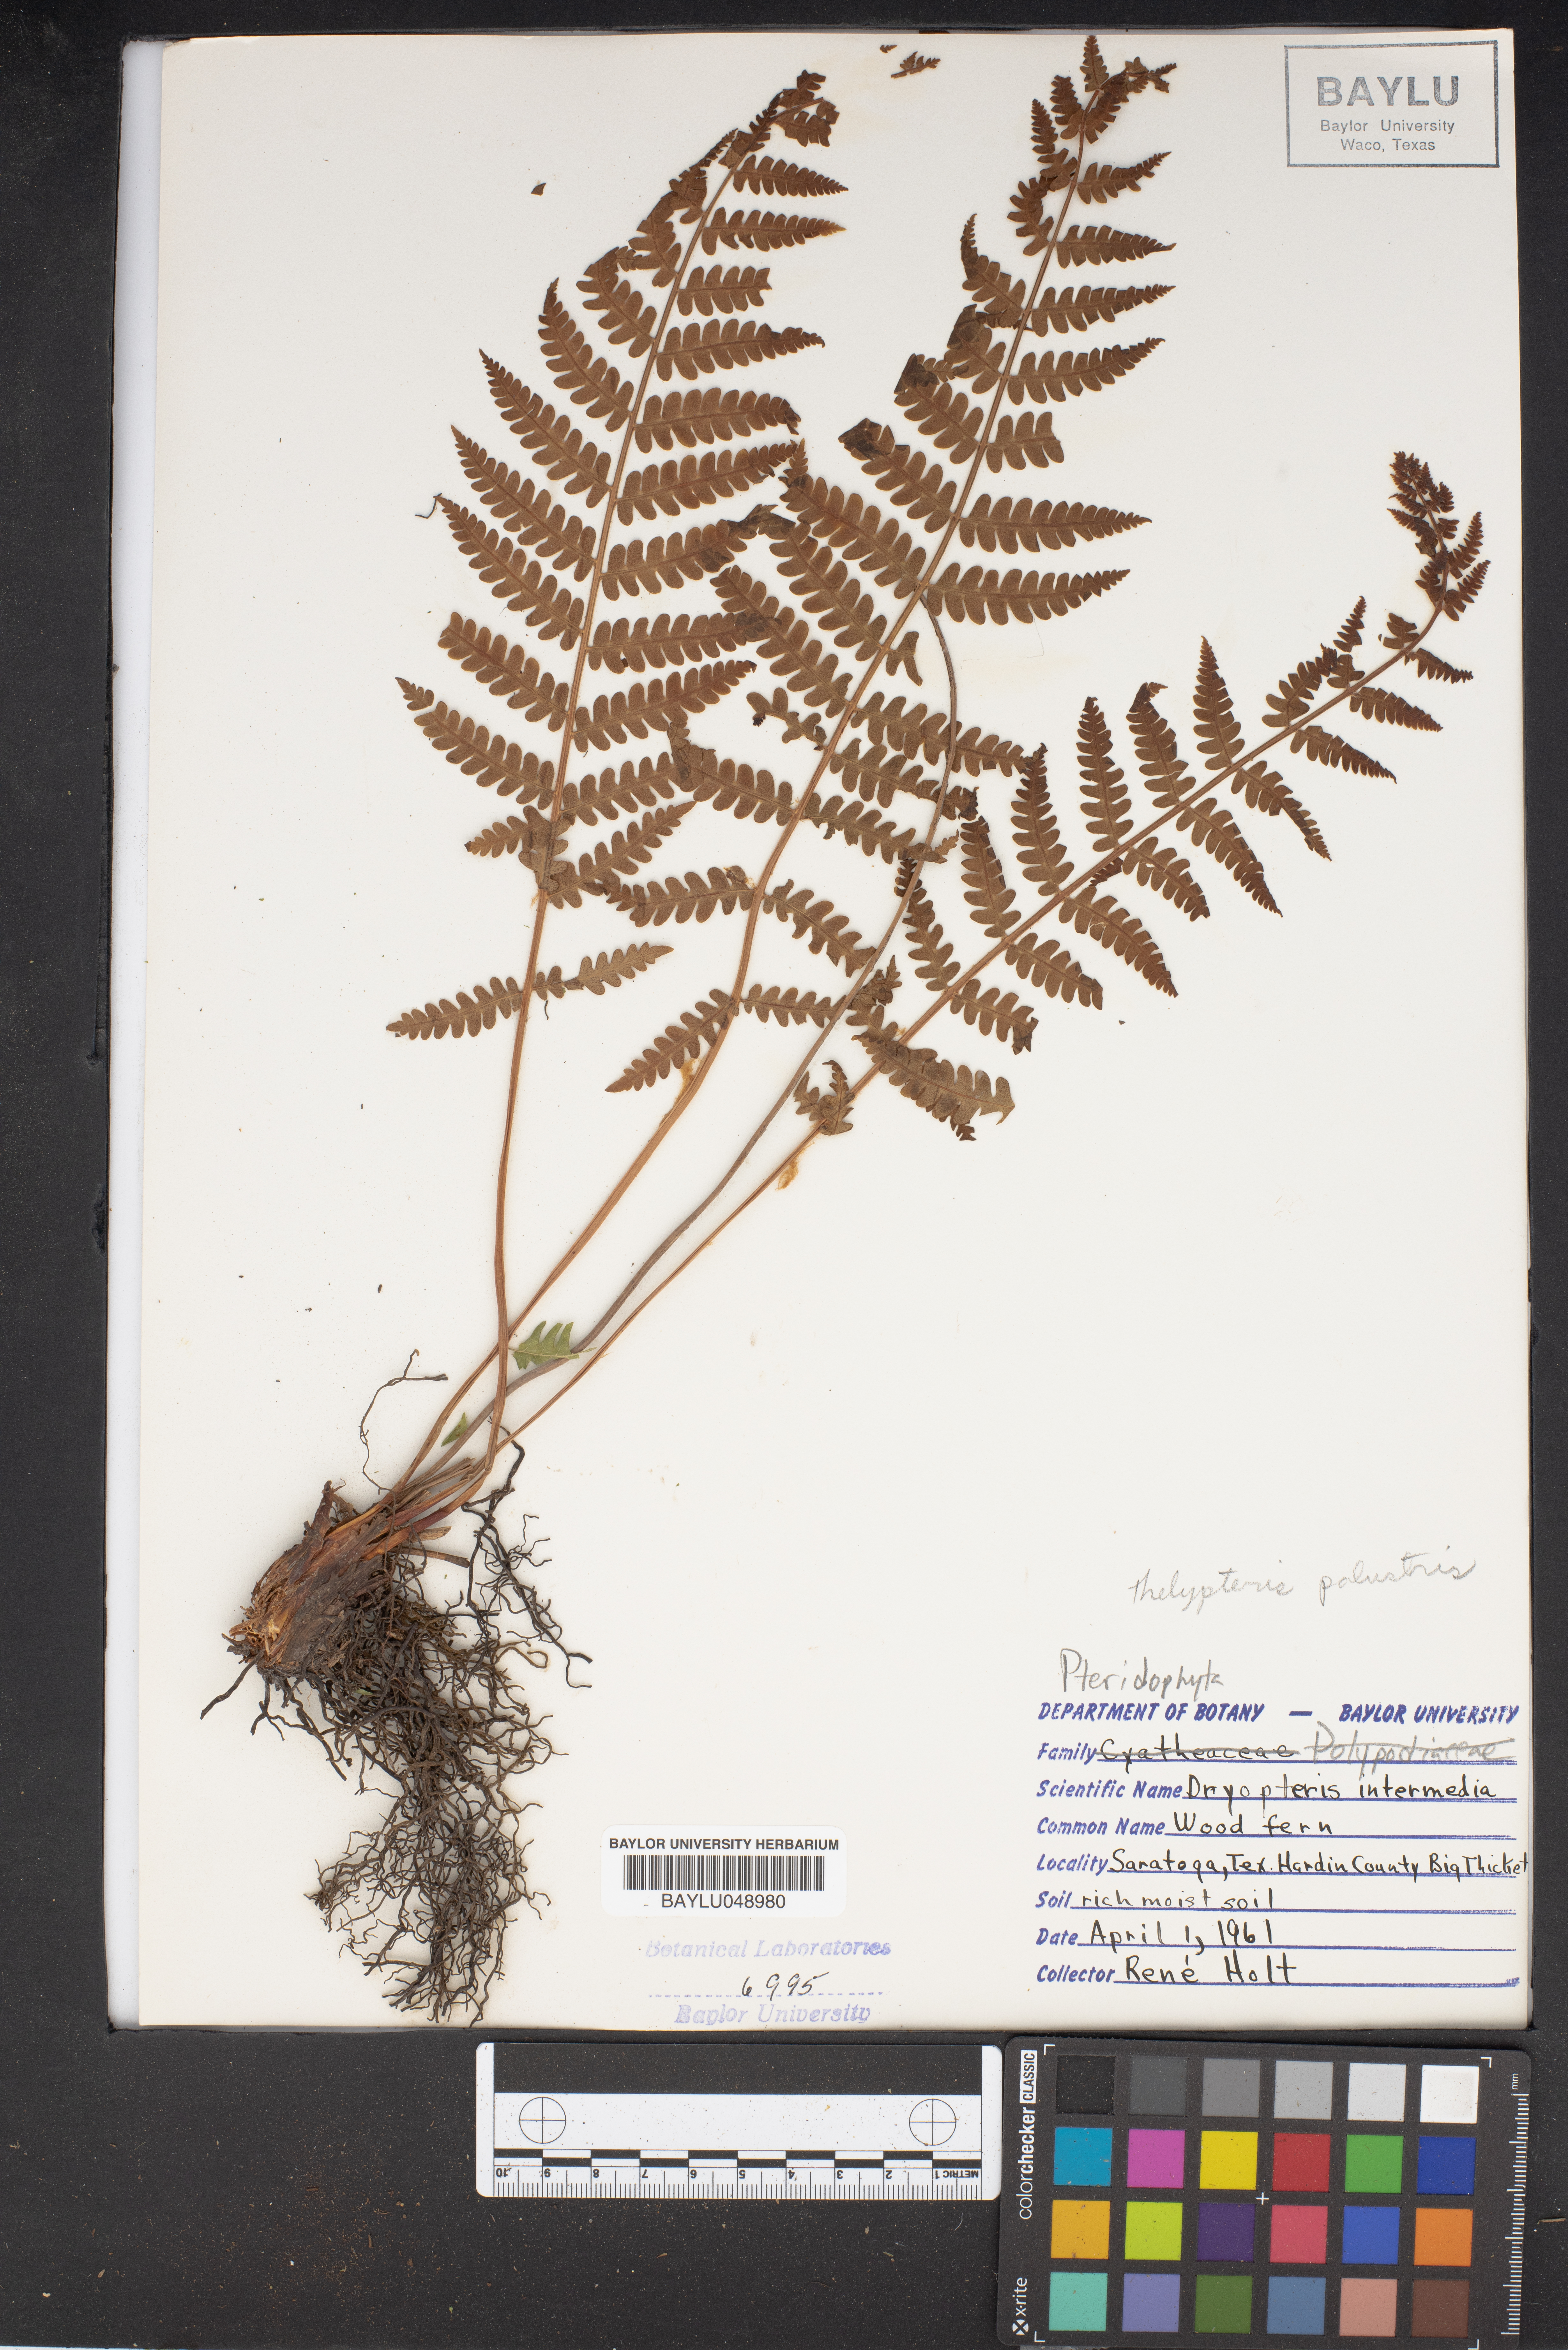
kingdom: Plantae
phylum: Tracheophyta
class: Polypodiopsida
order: Polypodiales
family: Dryopteridaceae
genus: Dryopteris
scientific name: Dryopteris intermedia
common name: Evergreen wood fern
